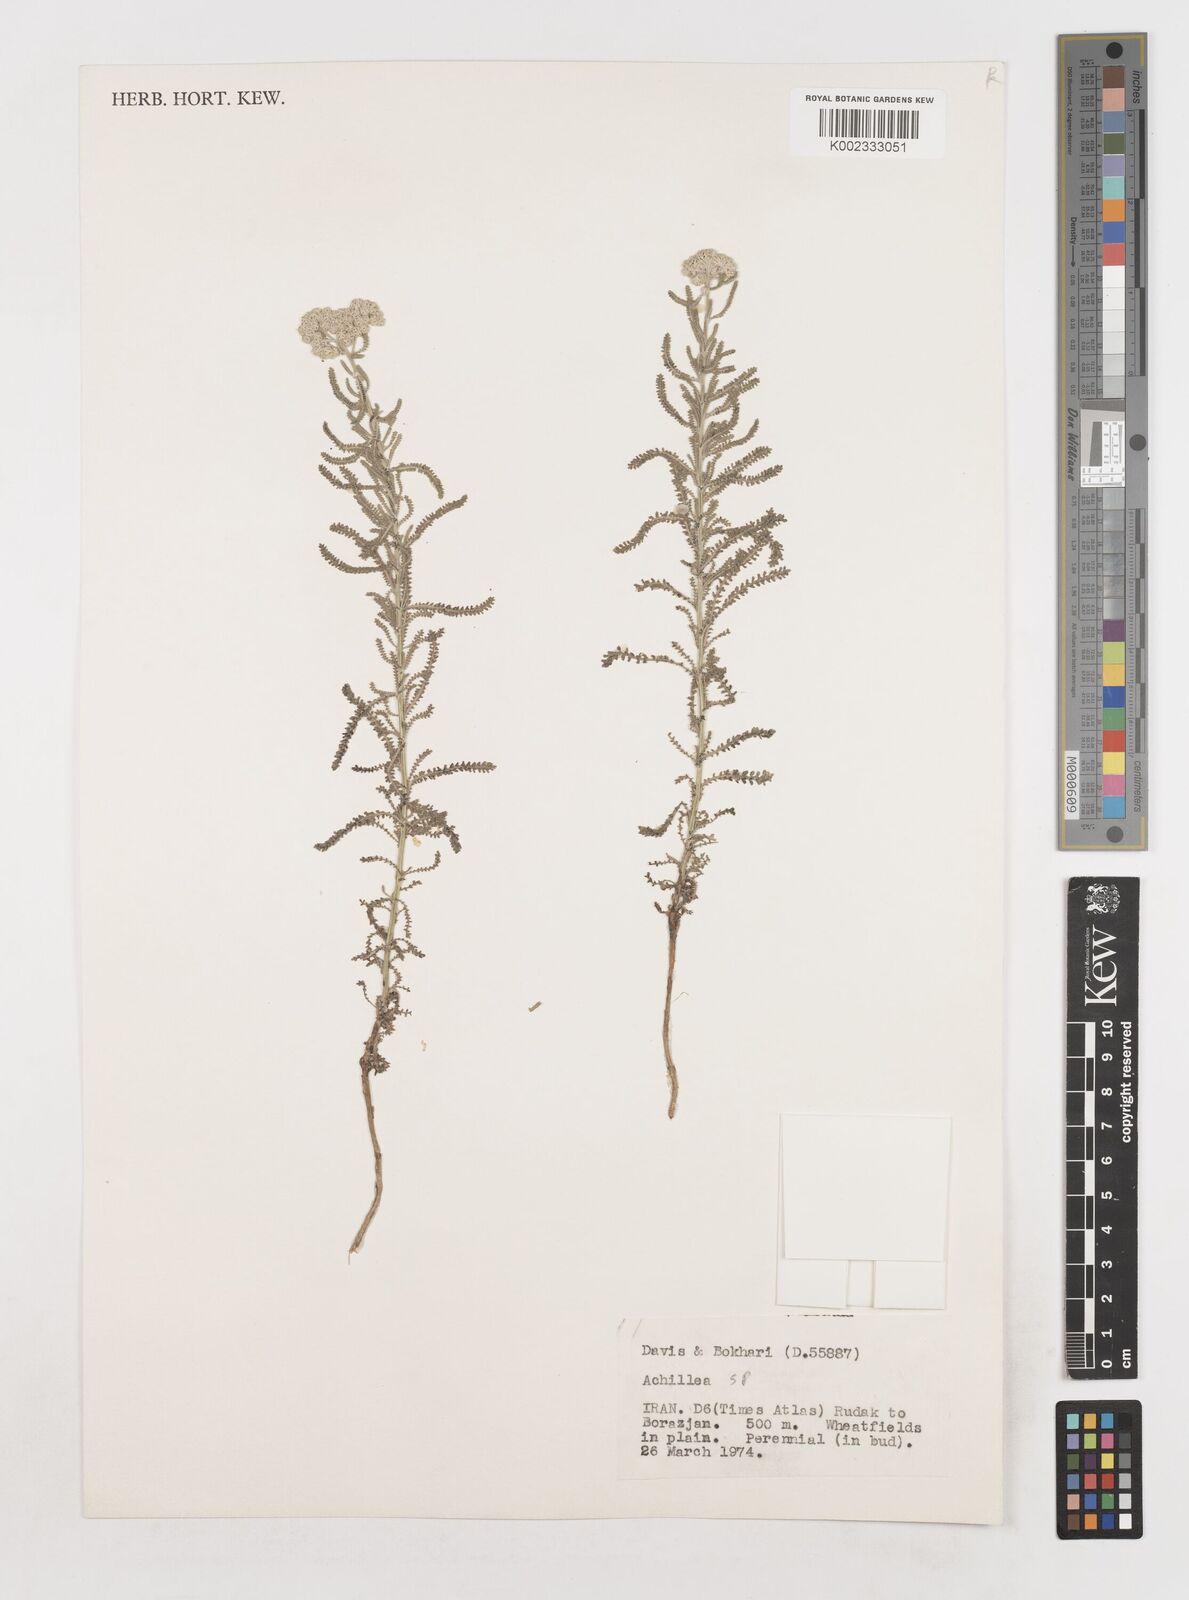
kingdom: Plantae
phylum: Tracheophyta
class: Magnoliopsida
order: Asterales
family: Asteraceae
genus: Achillea
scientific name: Achillea
